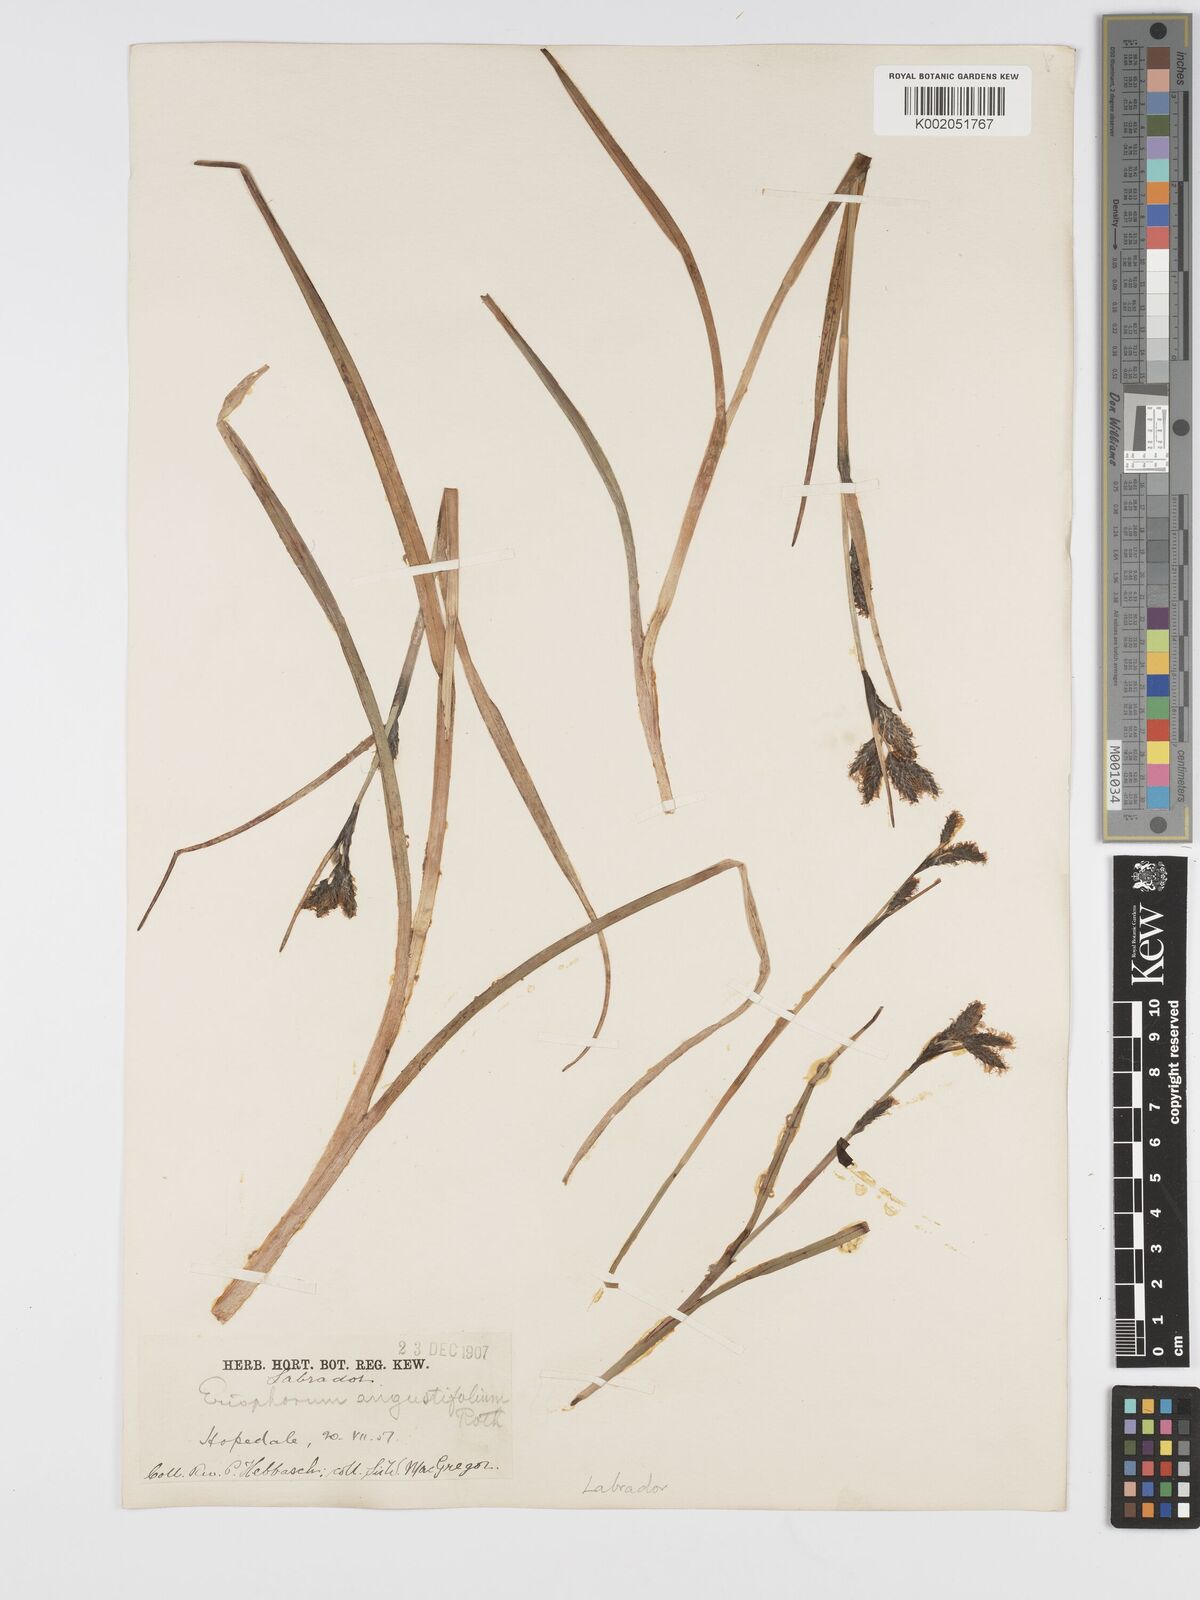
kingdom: Plantae
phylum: Tracheophyta
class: Liliopsida
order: Poales
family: Cyperaceae
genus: Eriophorum
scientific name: Eriophorum angustifolium
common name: Common cottongrass
